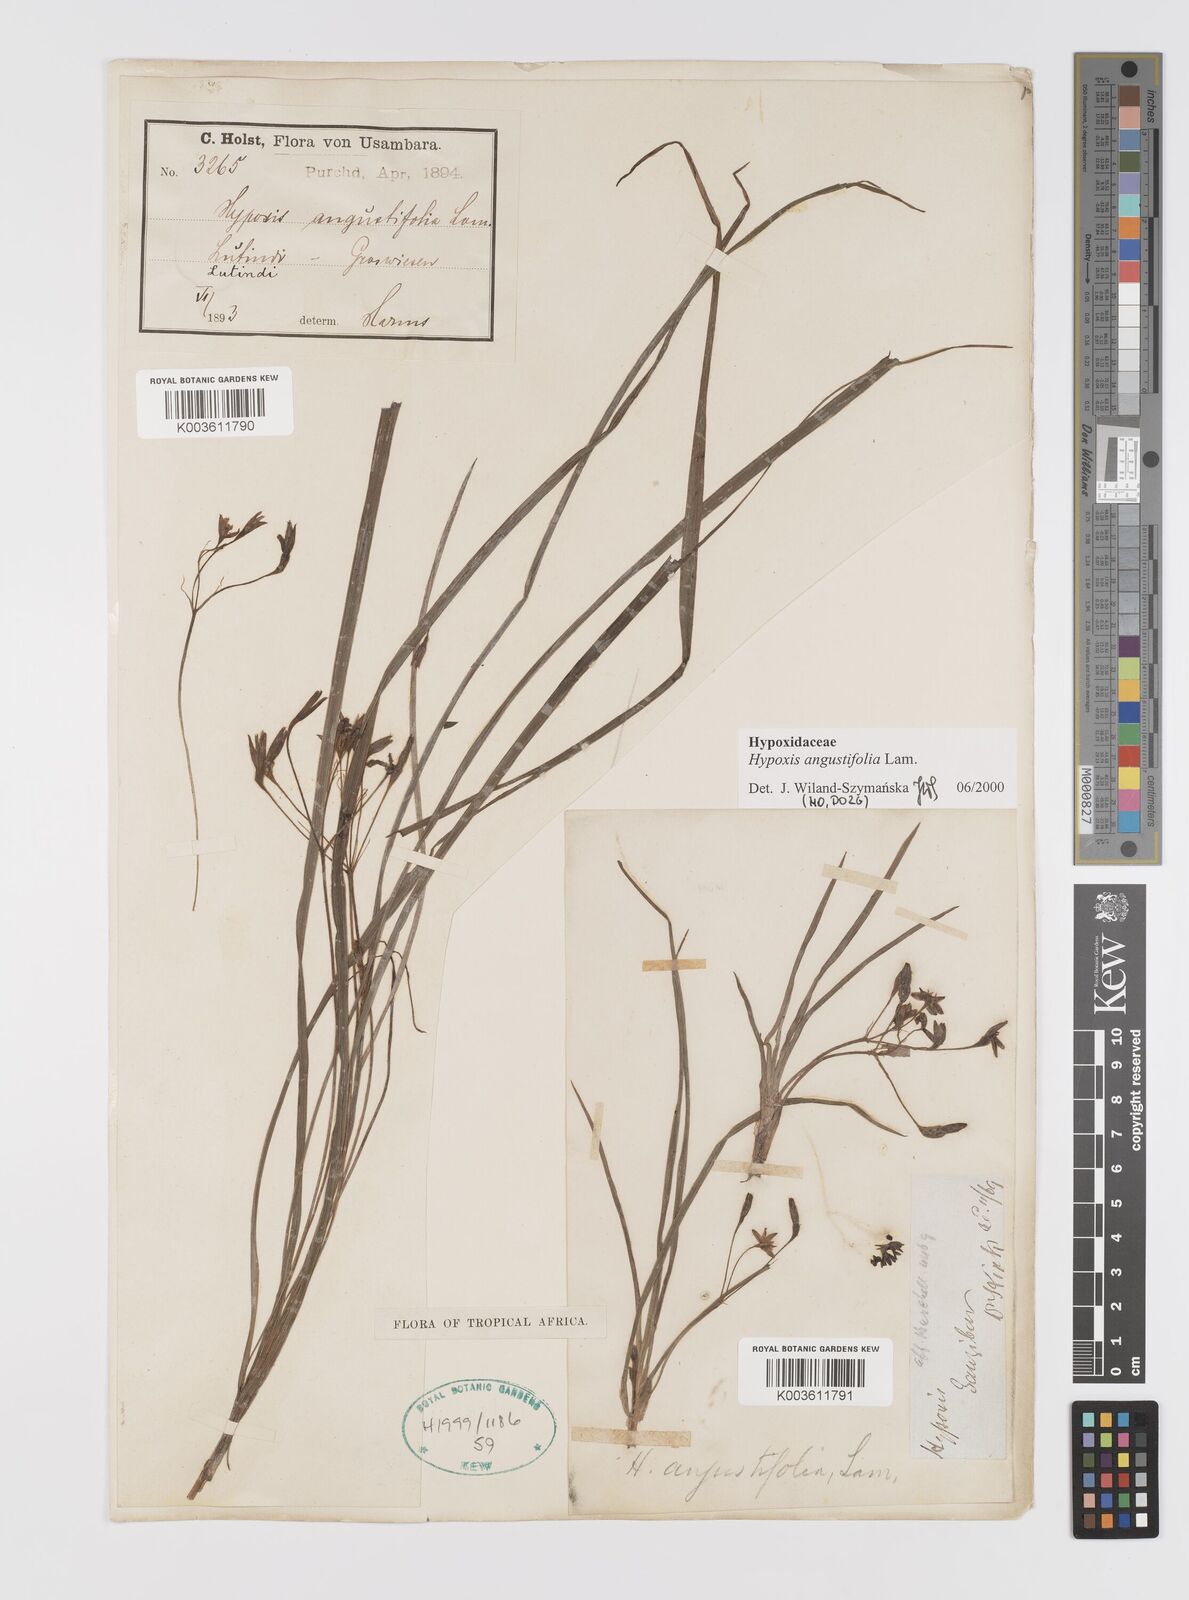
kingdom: Plantae
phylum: Tracheophyta
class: Liliopsida
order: Asparagales
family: Hypoxidaceae
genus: Hypoxis
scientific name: Hypoxis angustifolia
